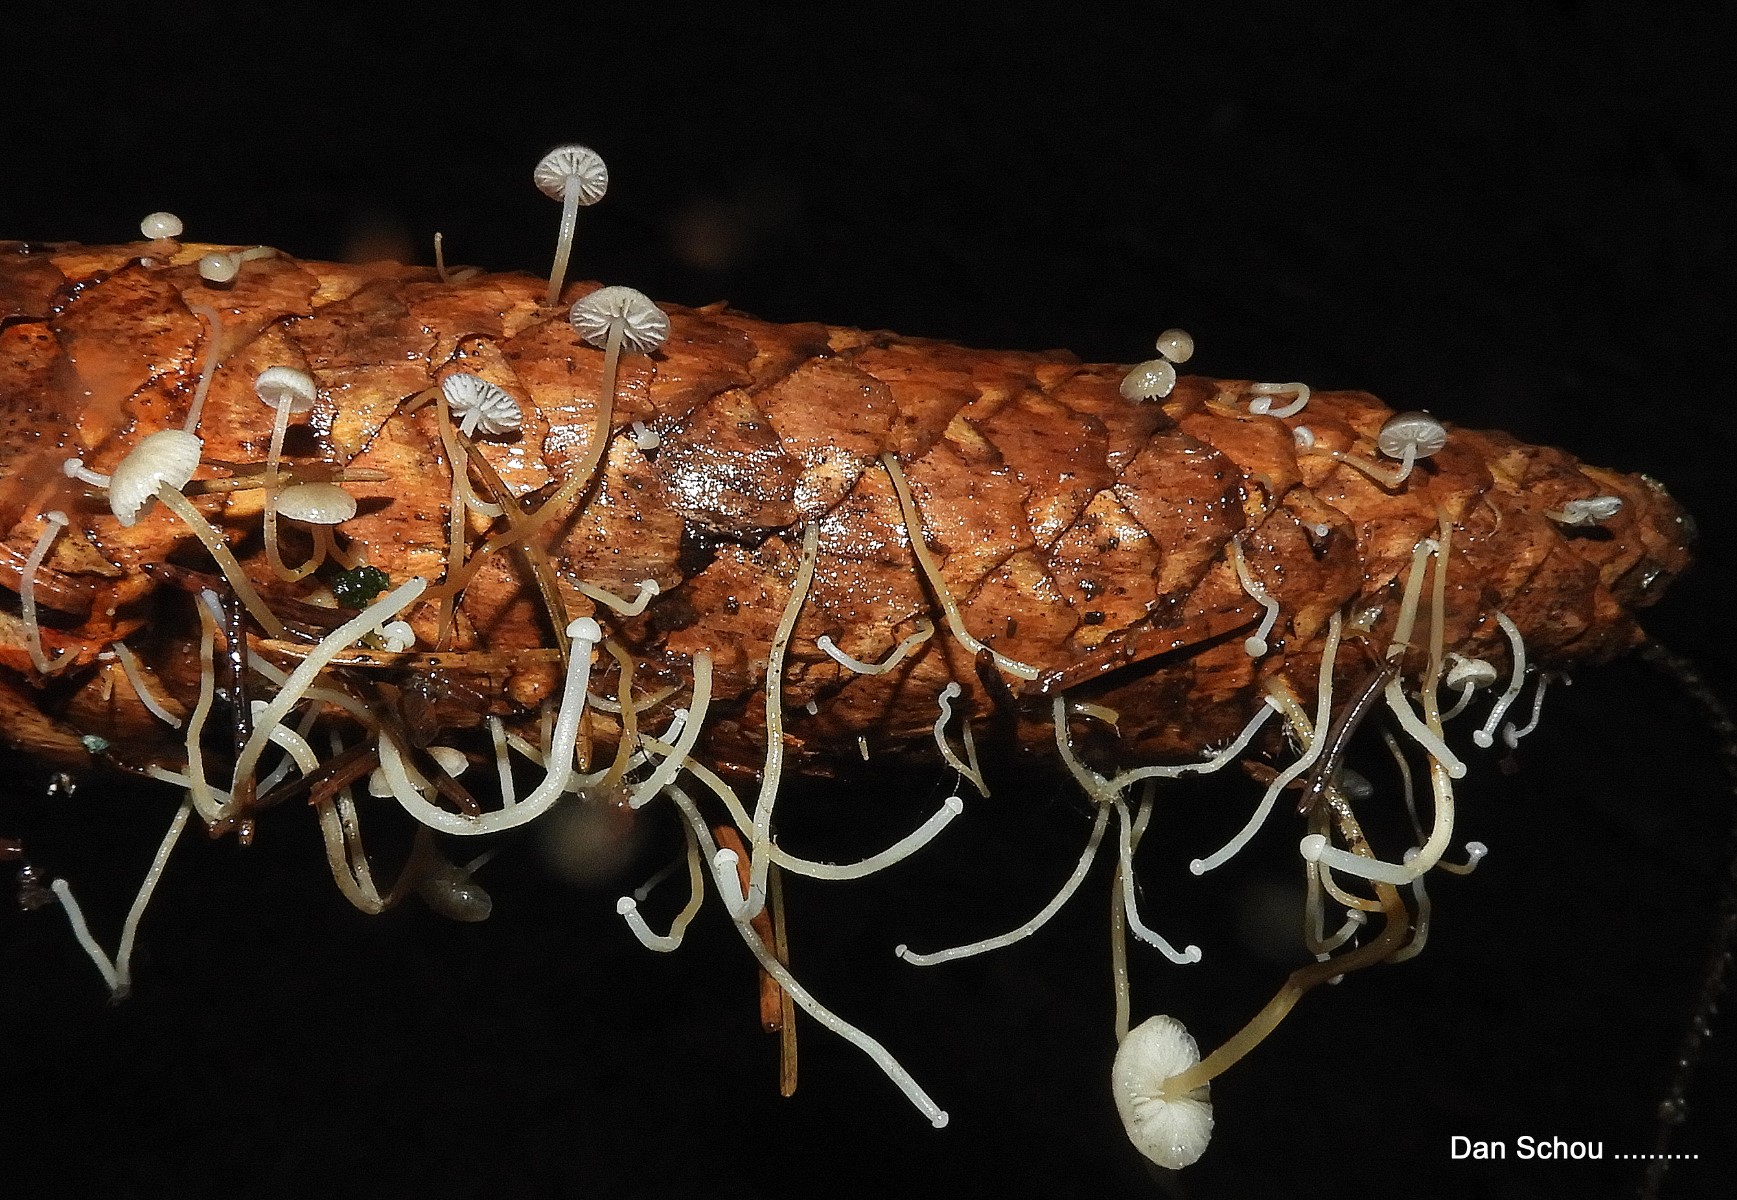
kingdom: Fungi
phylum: Basidiomycota
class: Agaricomycetes
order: Agaricales
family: Physalacriaceae
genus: Strobilurus
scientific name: Strobilurus esculentus
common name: gran-koglehat
